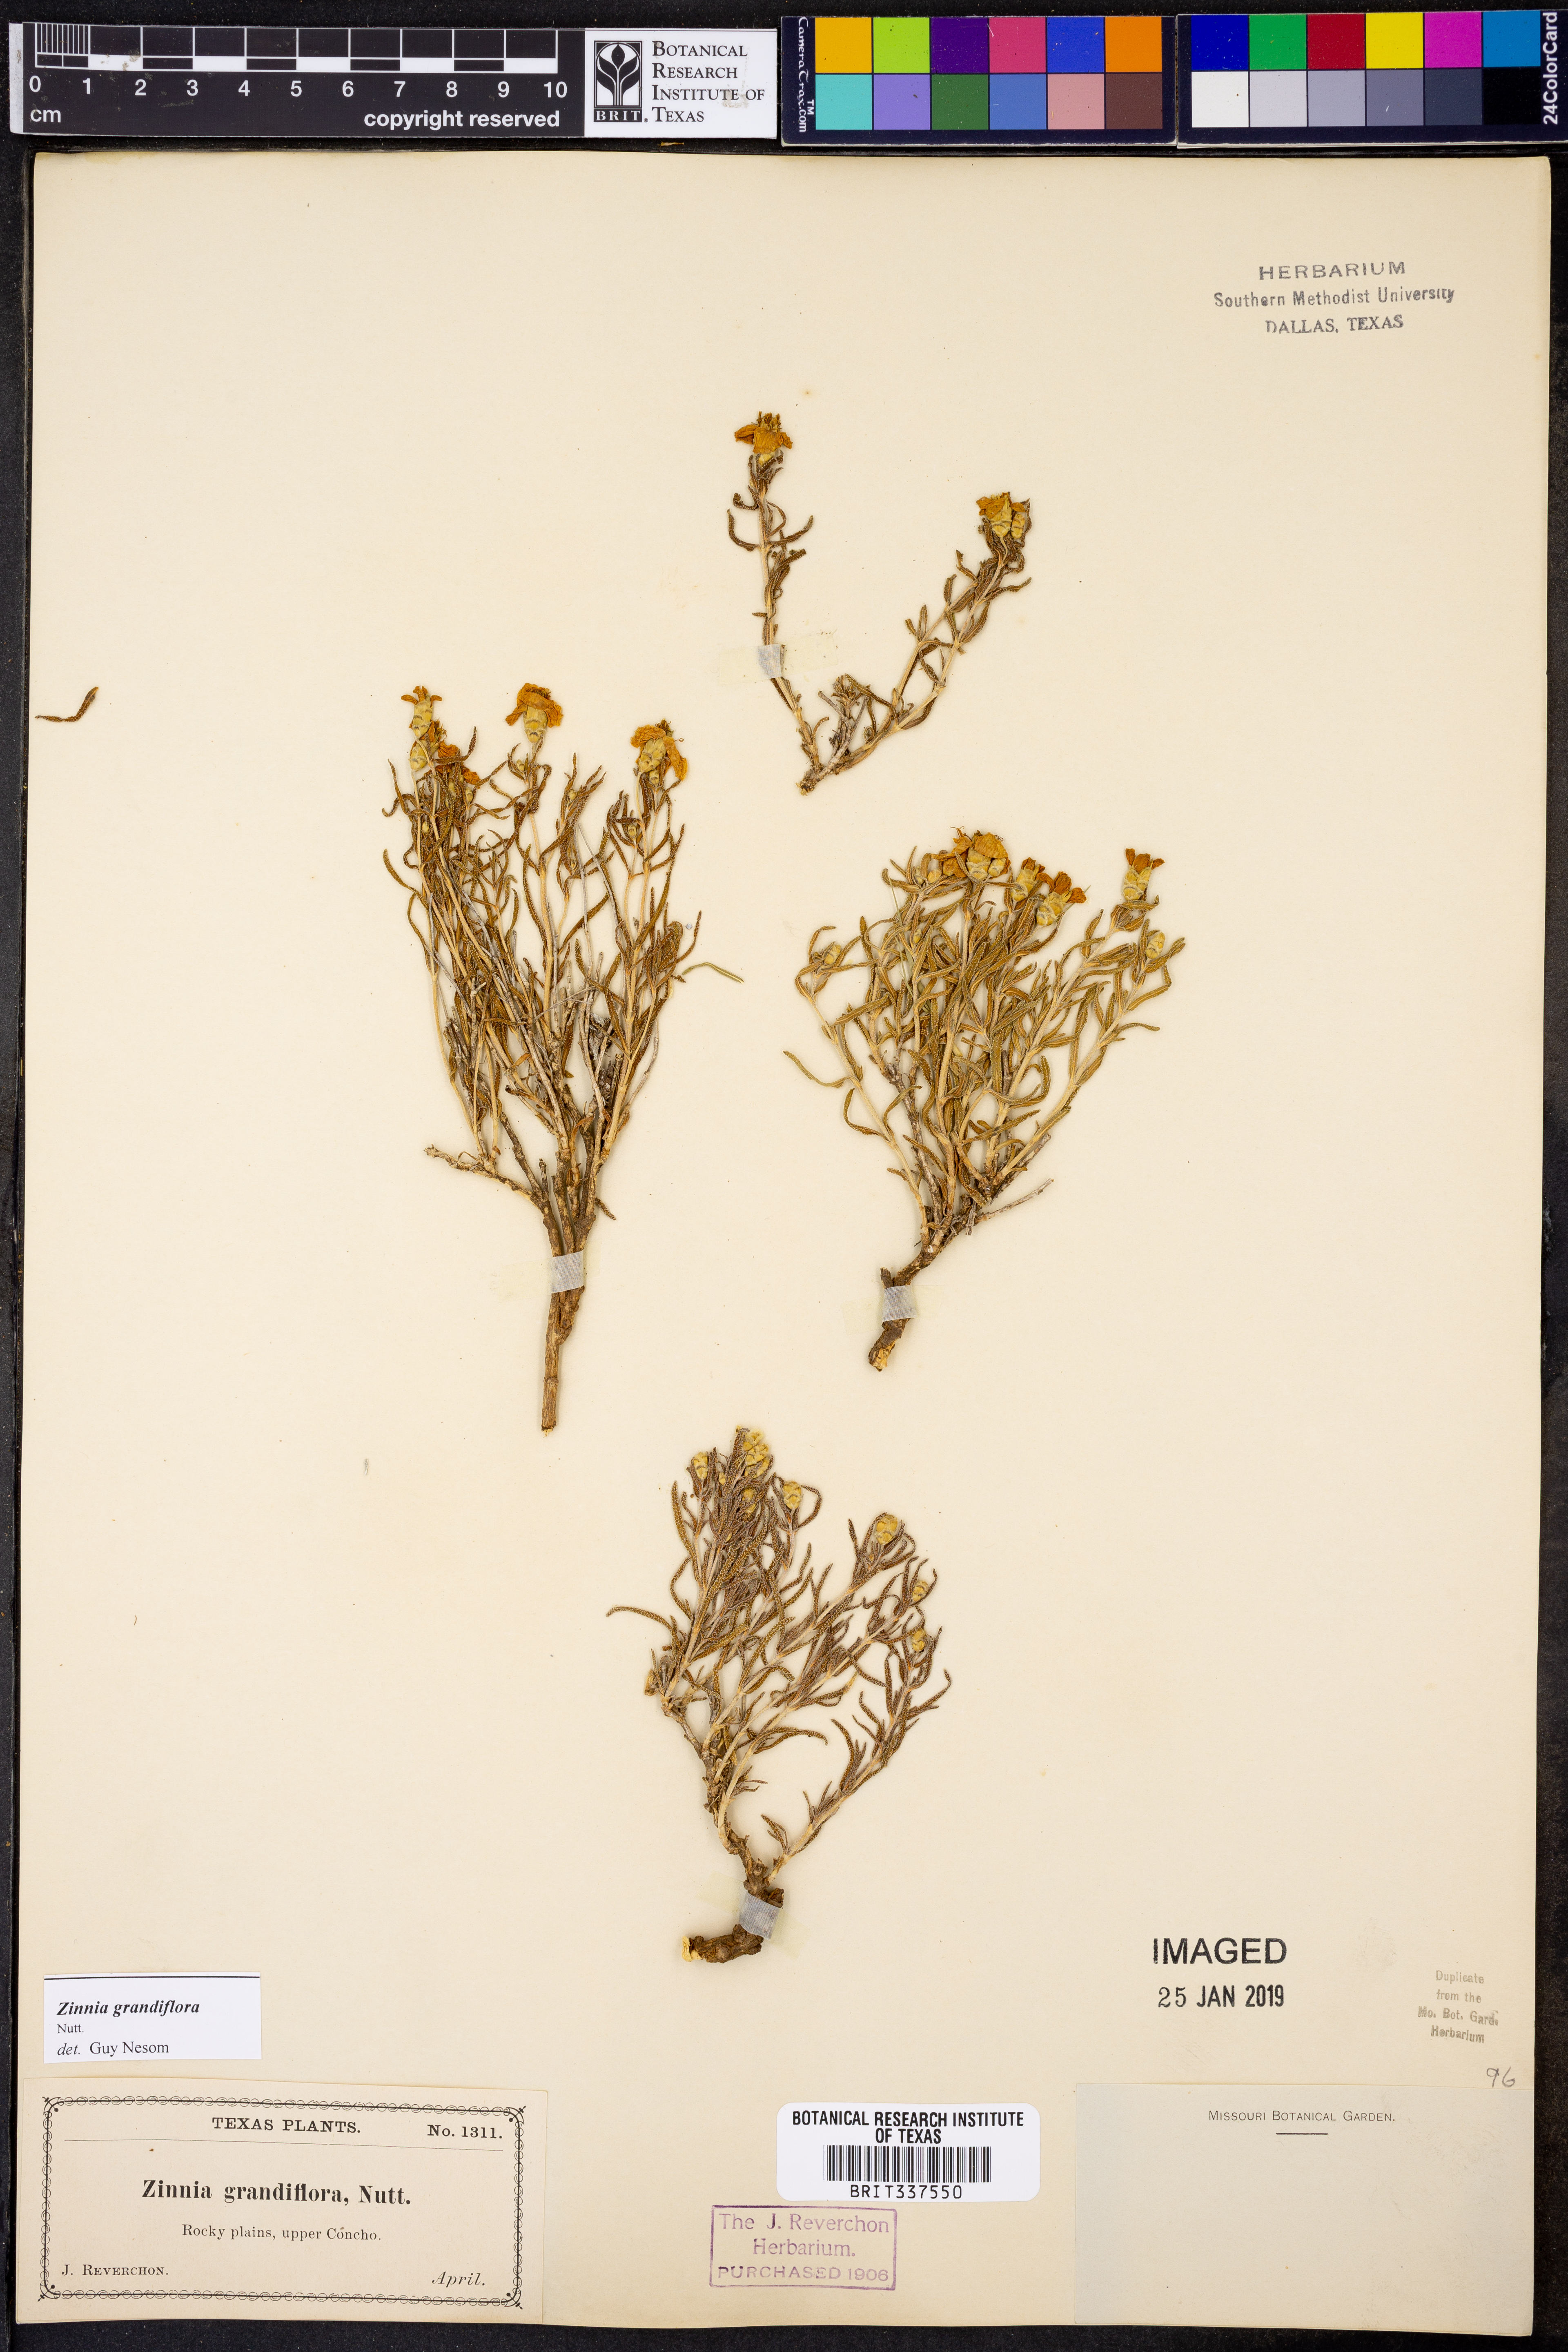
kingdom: Plantae
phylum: Tracheophyta
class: Magnoliopsida
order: Asterales
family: Asteraceae
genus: Zinnia
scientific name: Zinnia grandiflora
